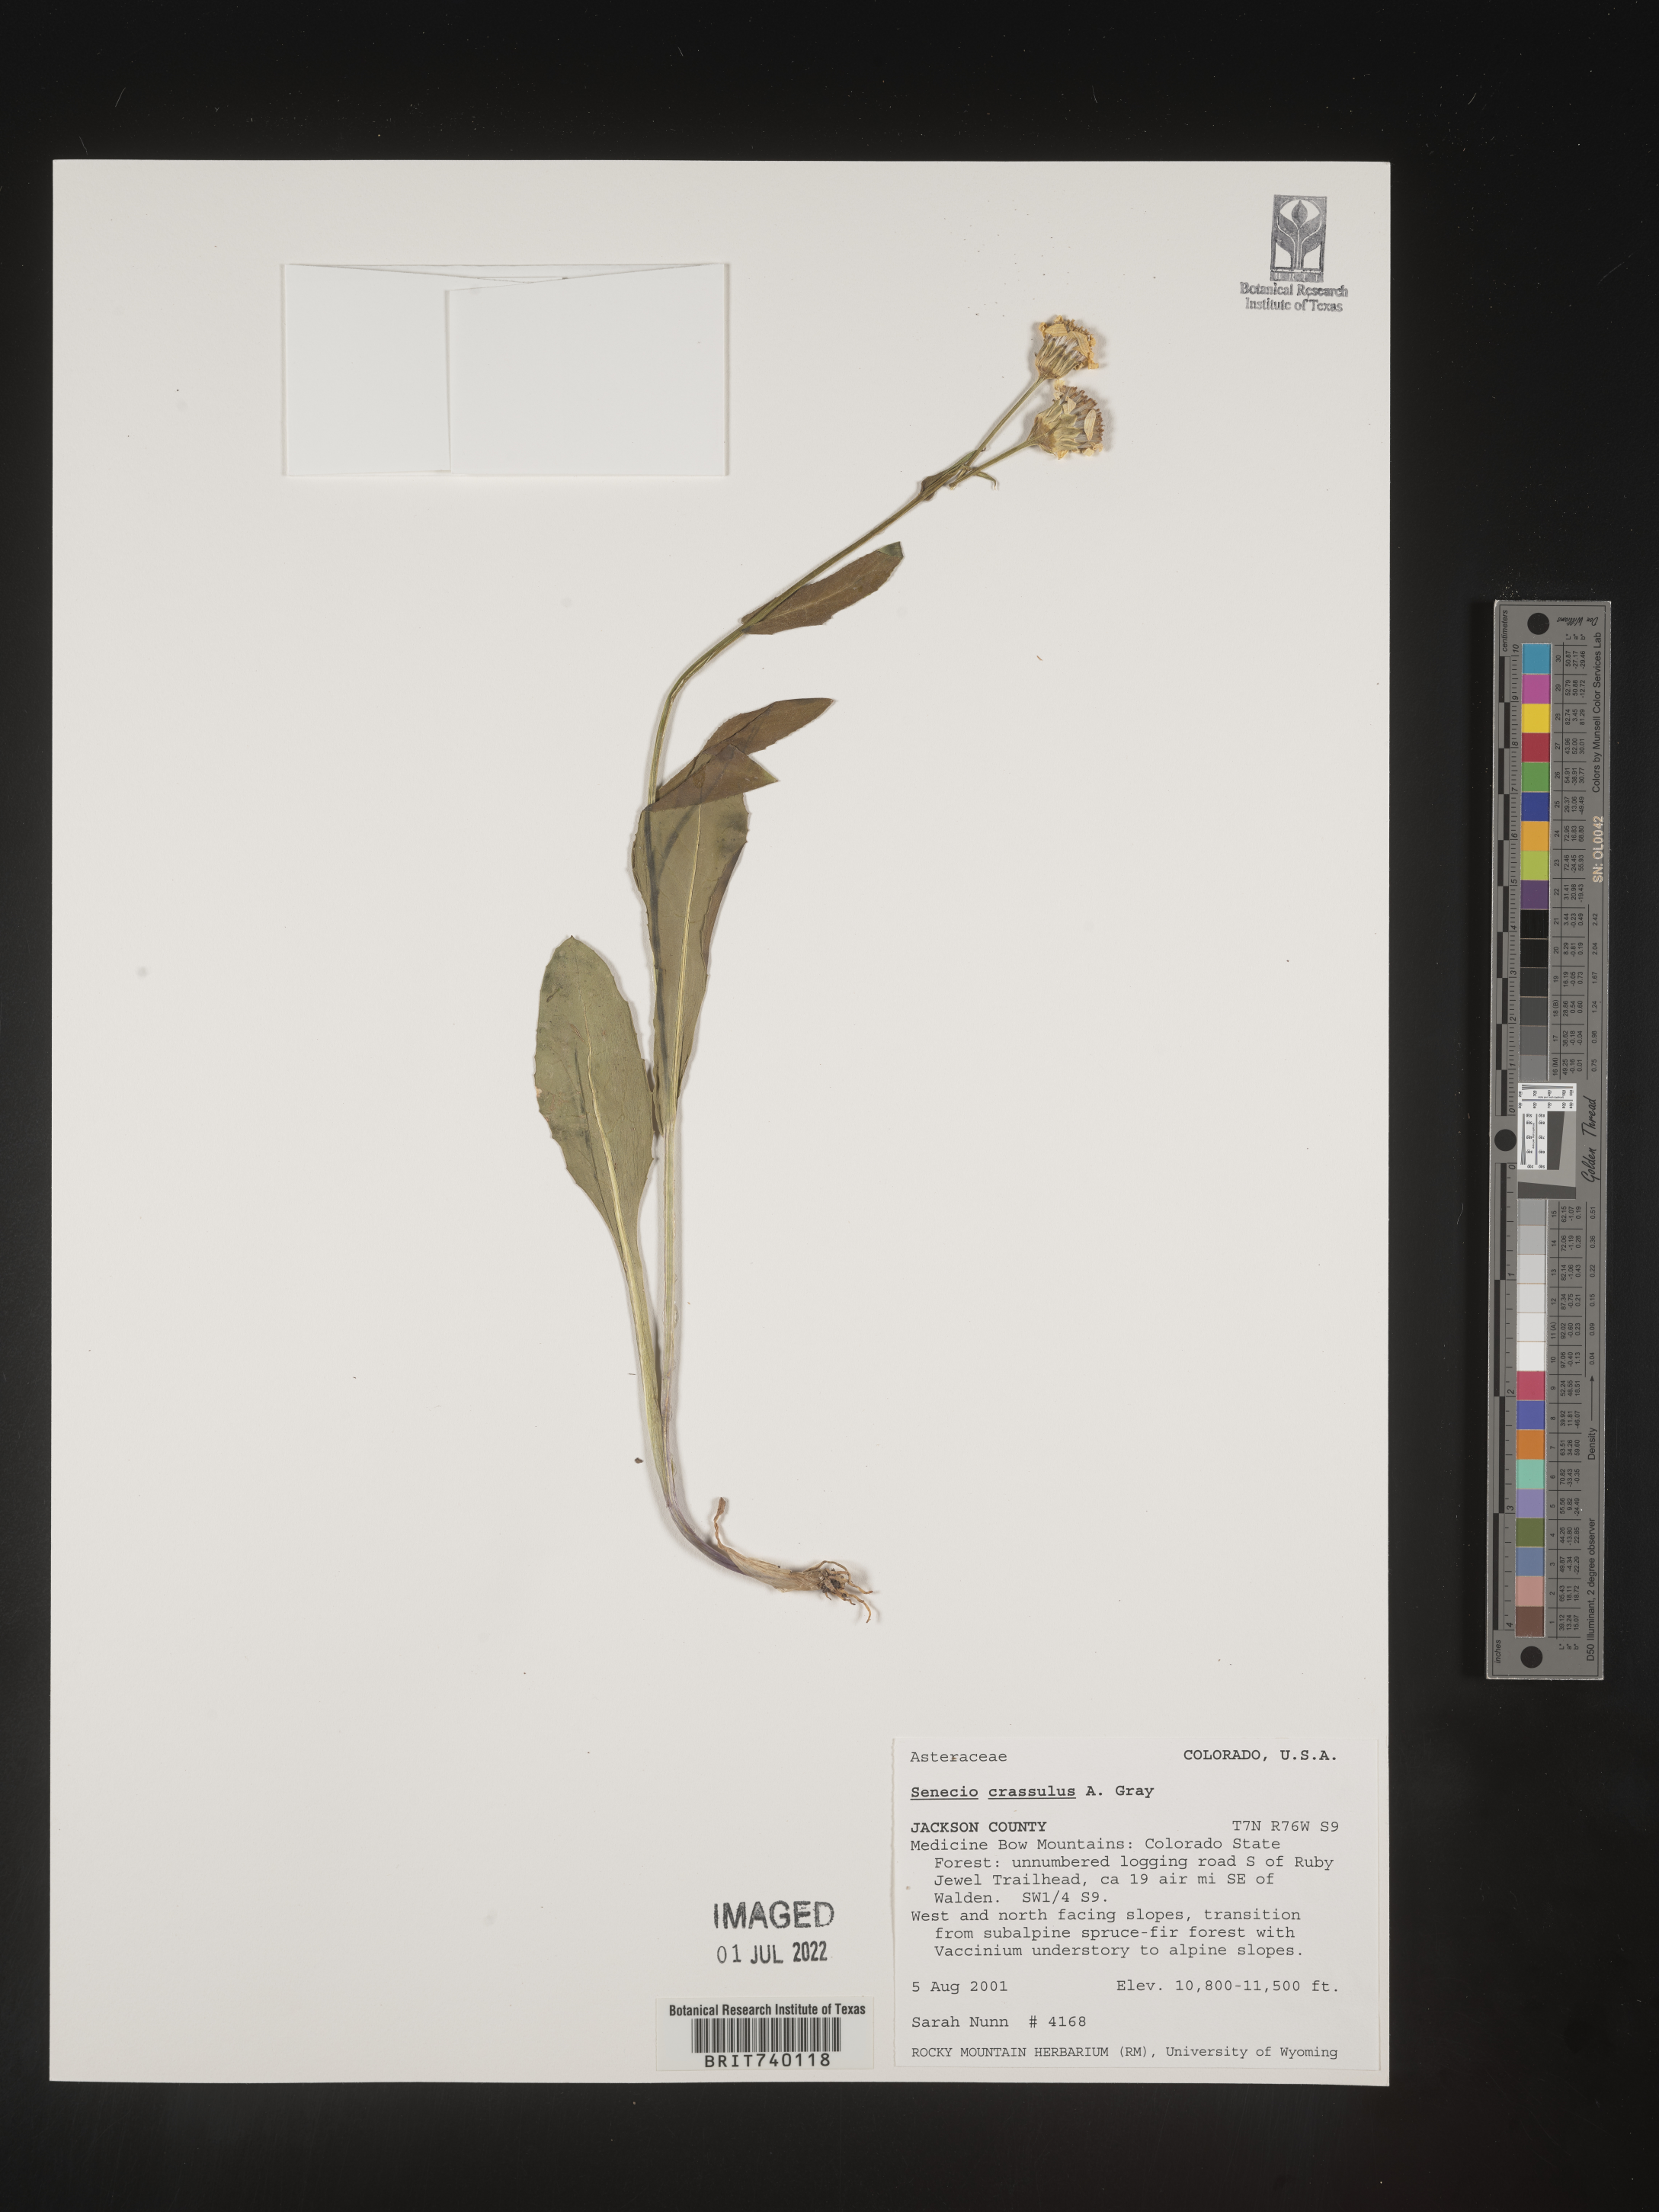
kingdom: Plantae
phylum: Tracheophyta
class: Magnoliopsida
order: Asterales
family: Asteraceae
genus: Senecio
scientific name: Senecio crassulus
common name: Mountain-meadow butterweed
